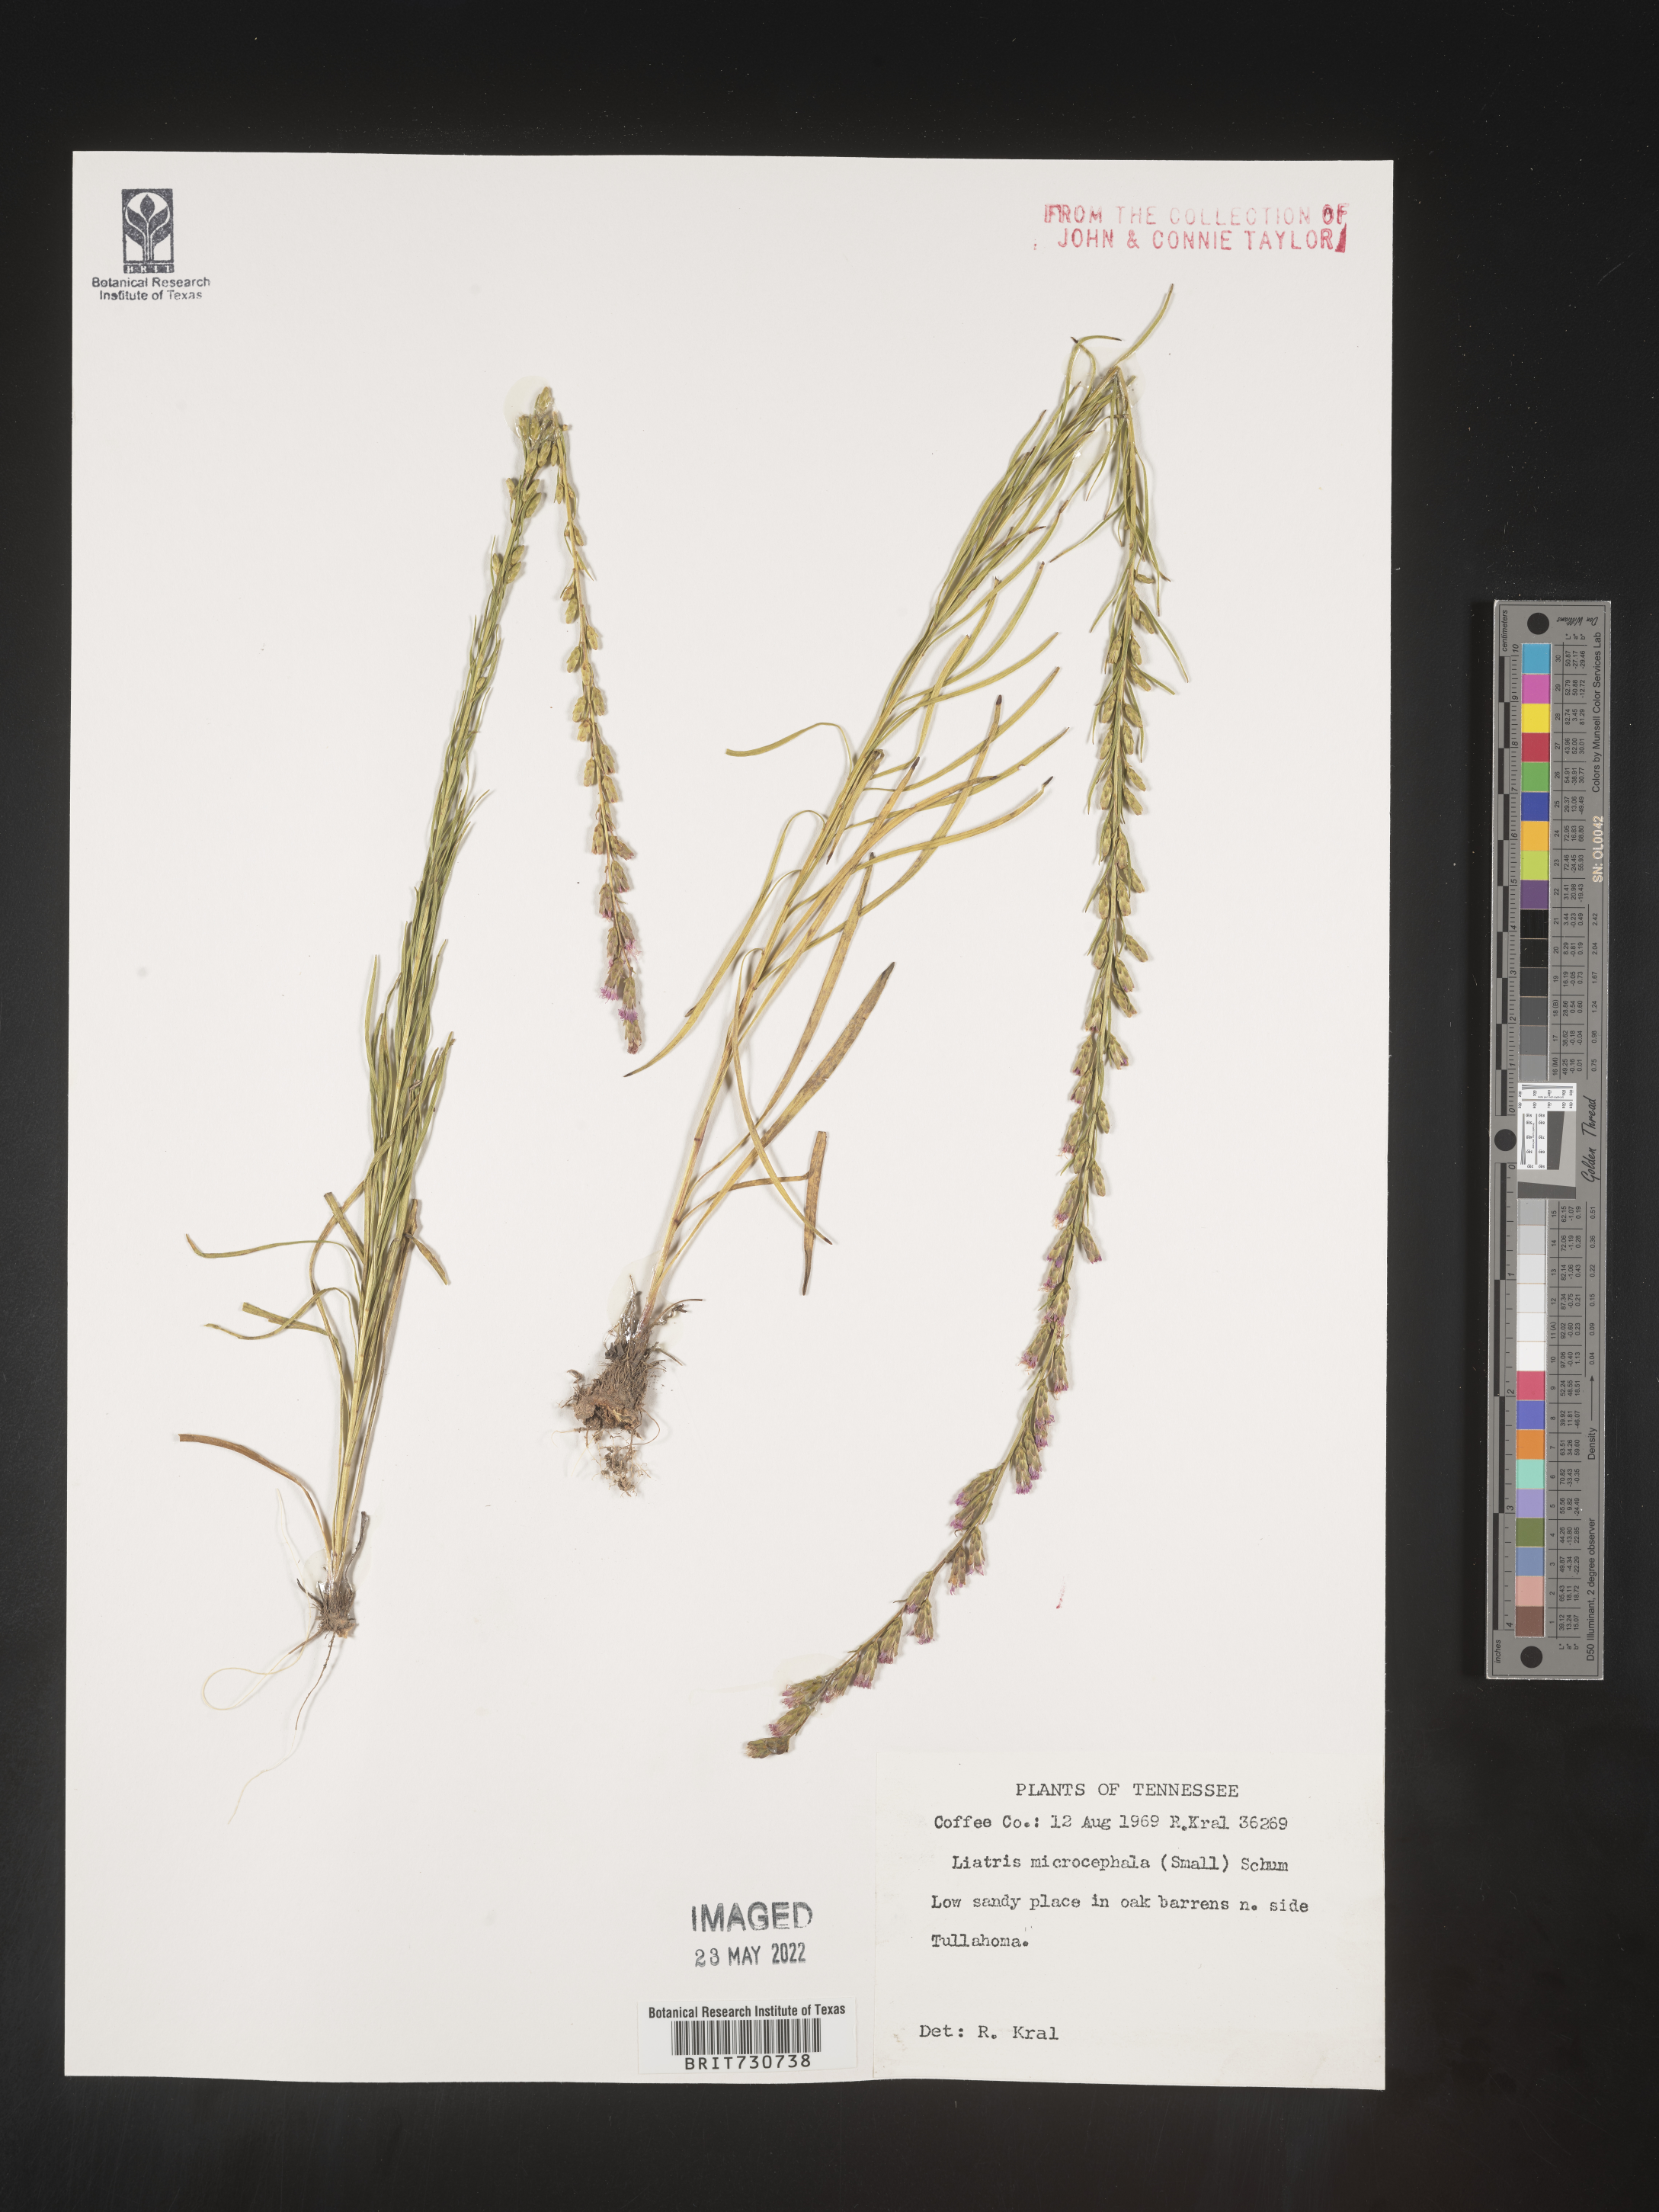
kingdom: Plantae
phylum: Tracheophyta
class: Magnoliopsida
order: Asterales
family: Asteraceae
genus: Liatris
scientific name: Liatris microcephala
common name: Small-head gayfeather
